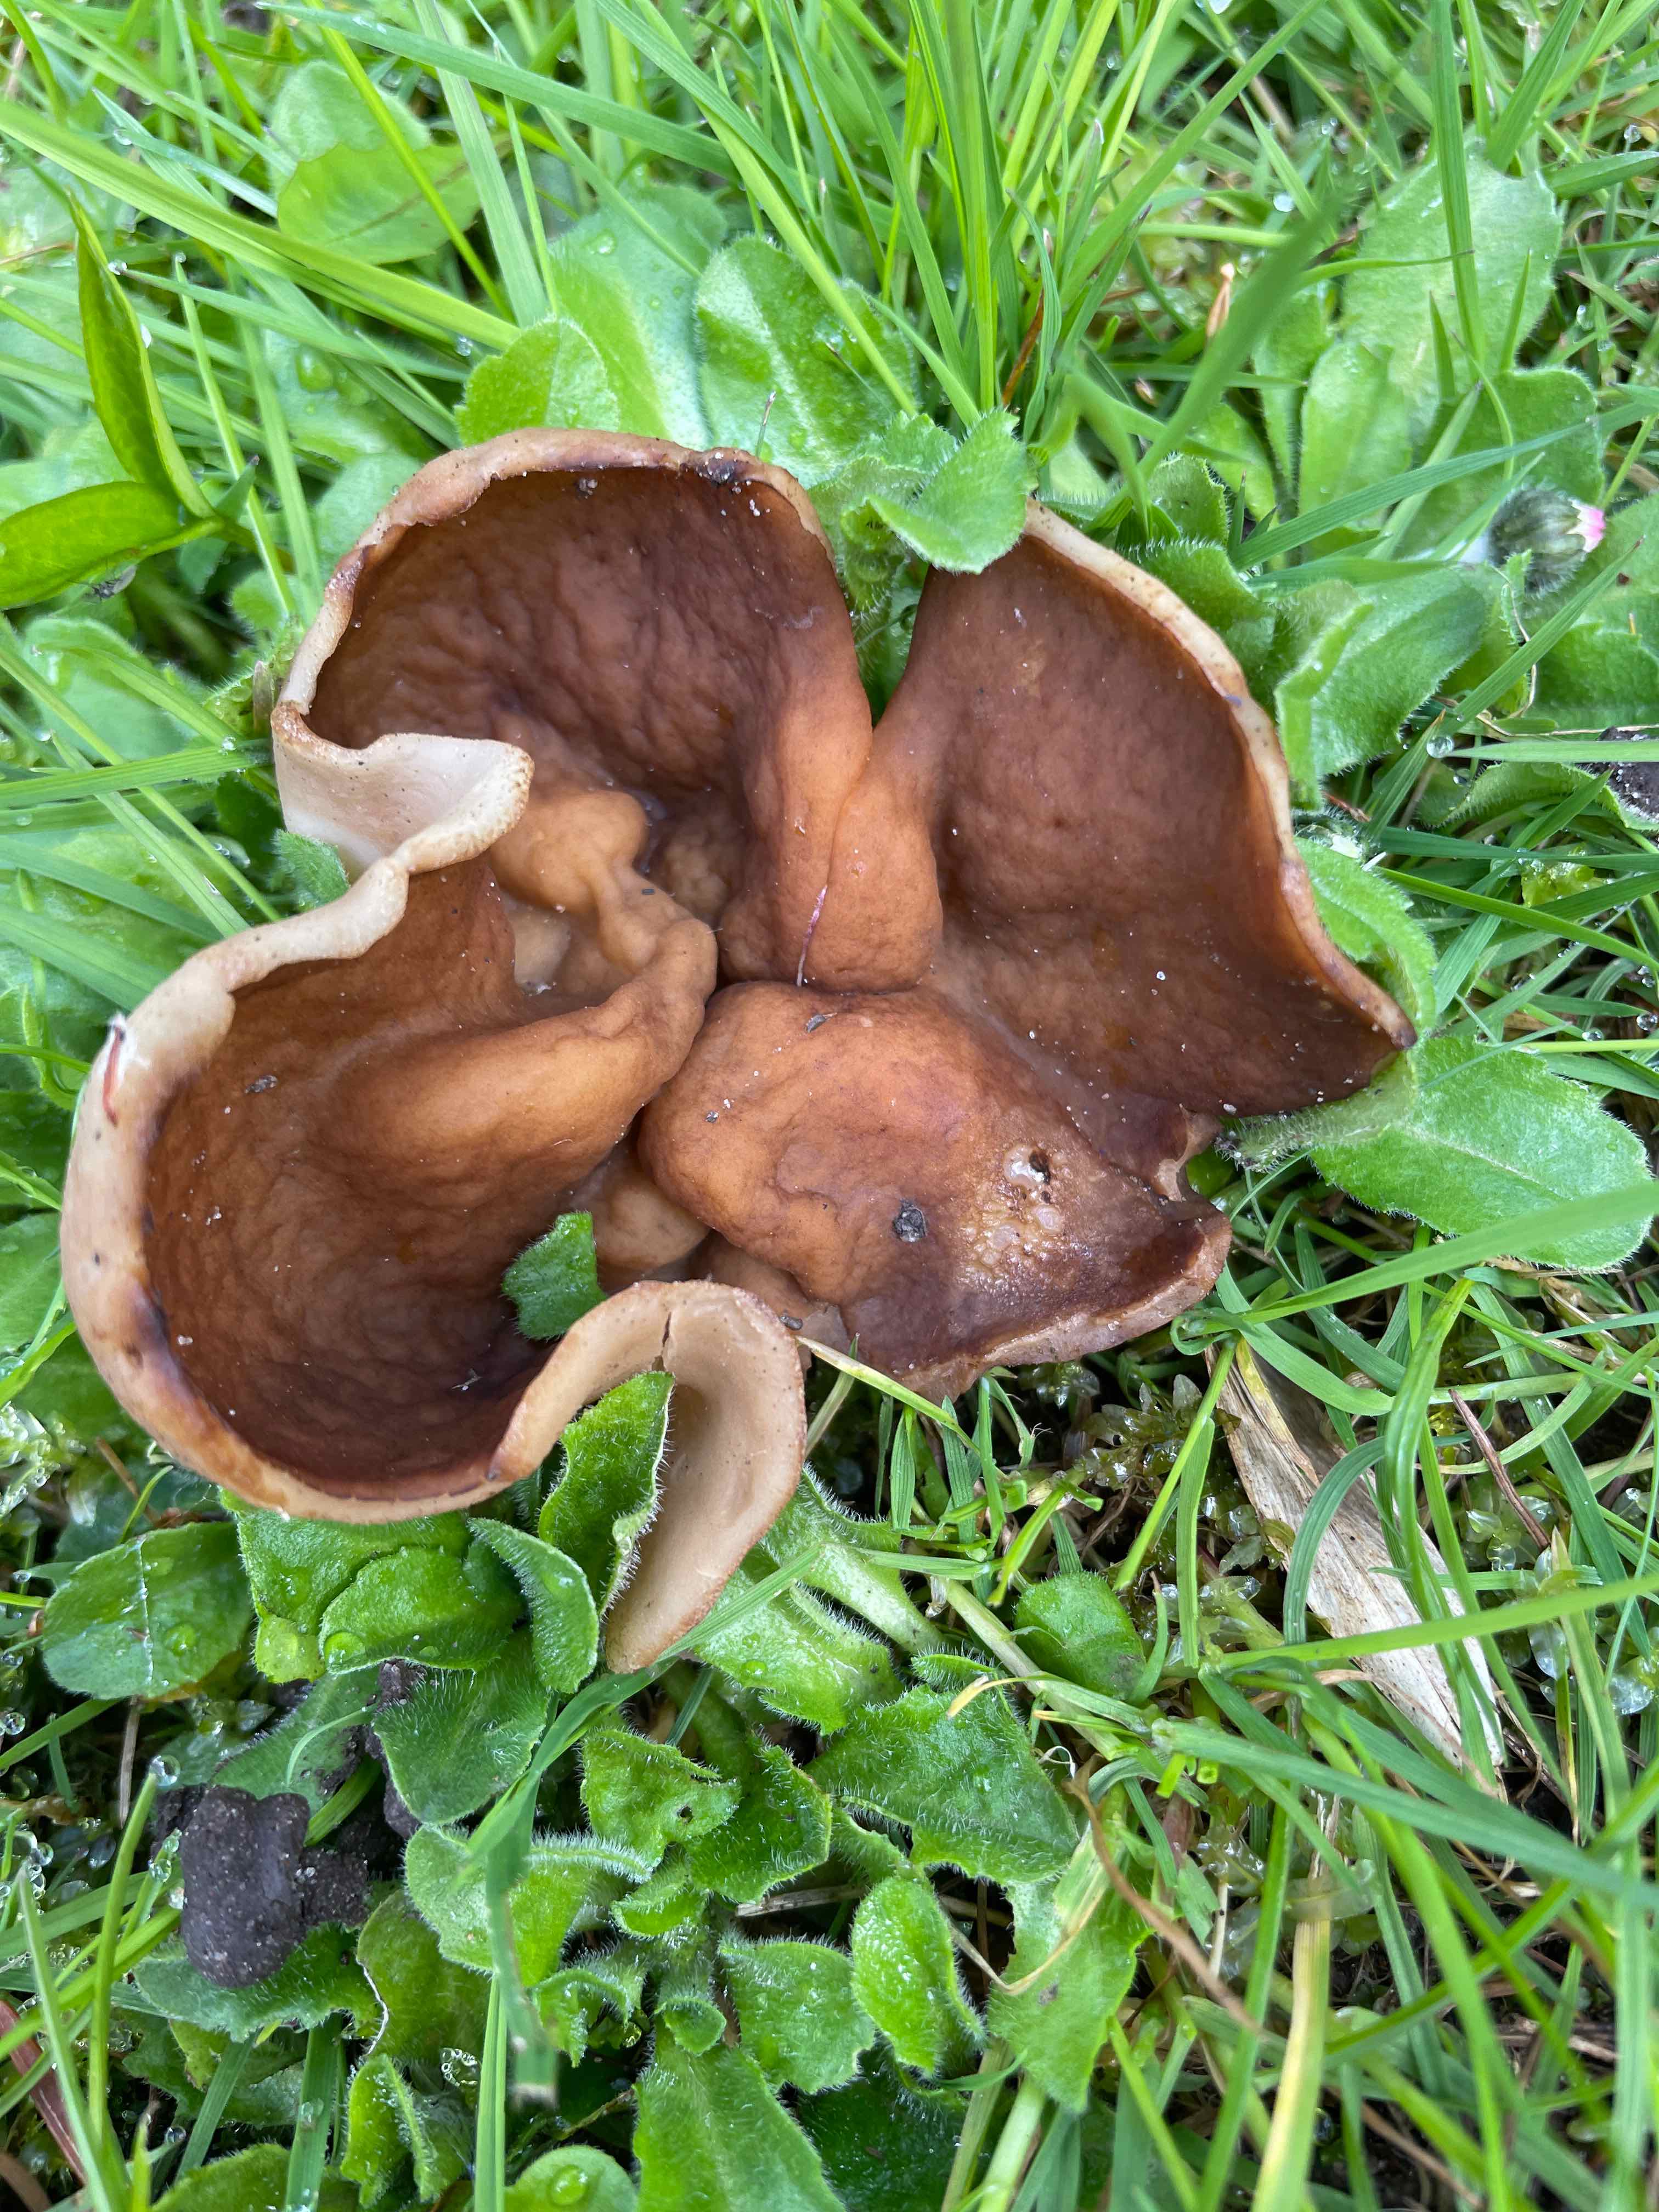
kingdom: Fungi
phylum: Ascomycota
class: Pezizomycetes
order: Pezizales
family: Morchellaceae
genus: Disciotis
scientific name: Disciotis venosa
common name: klor-bægermorkel
